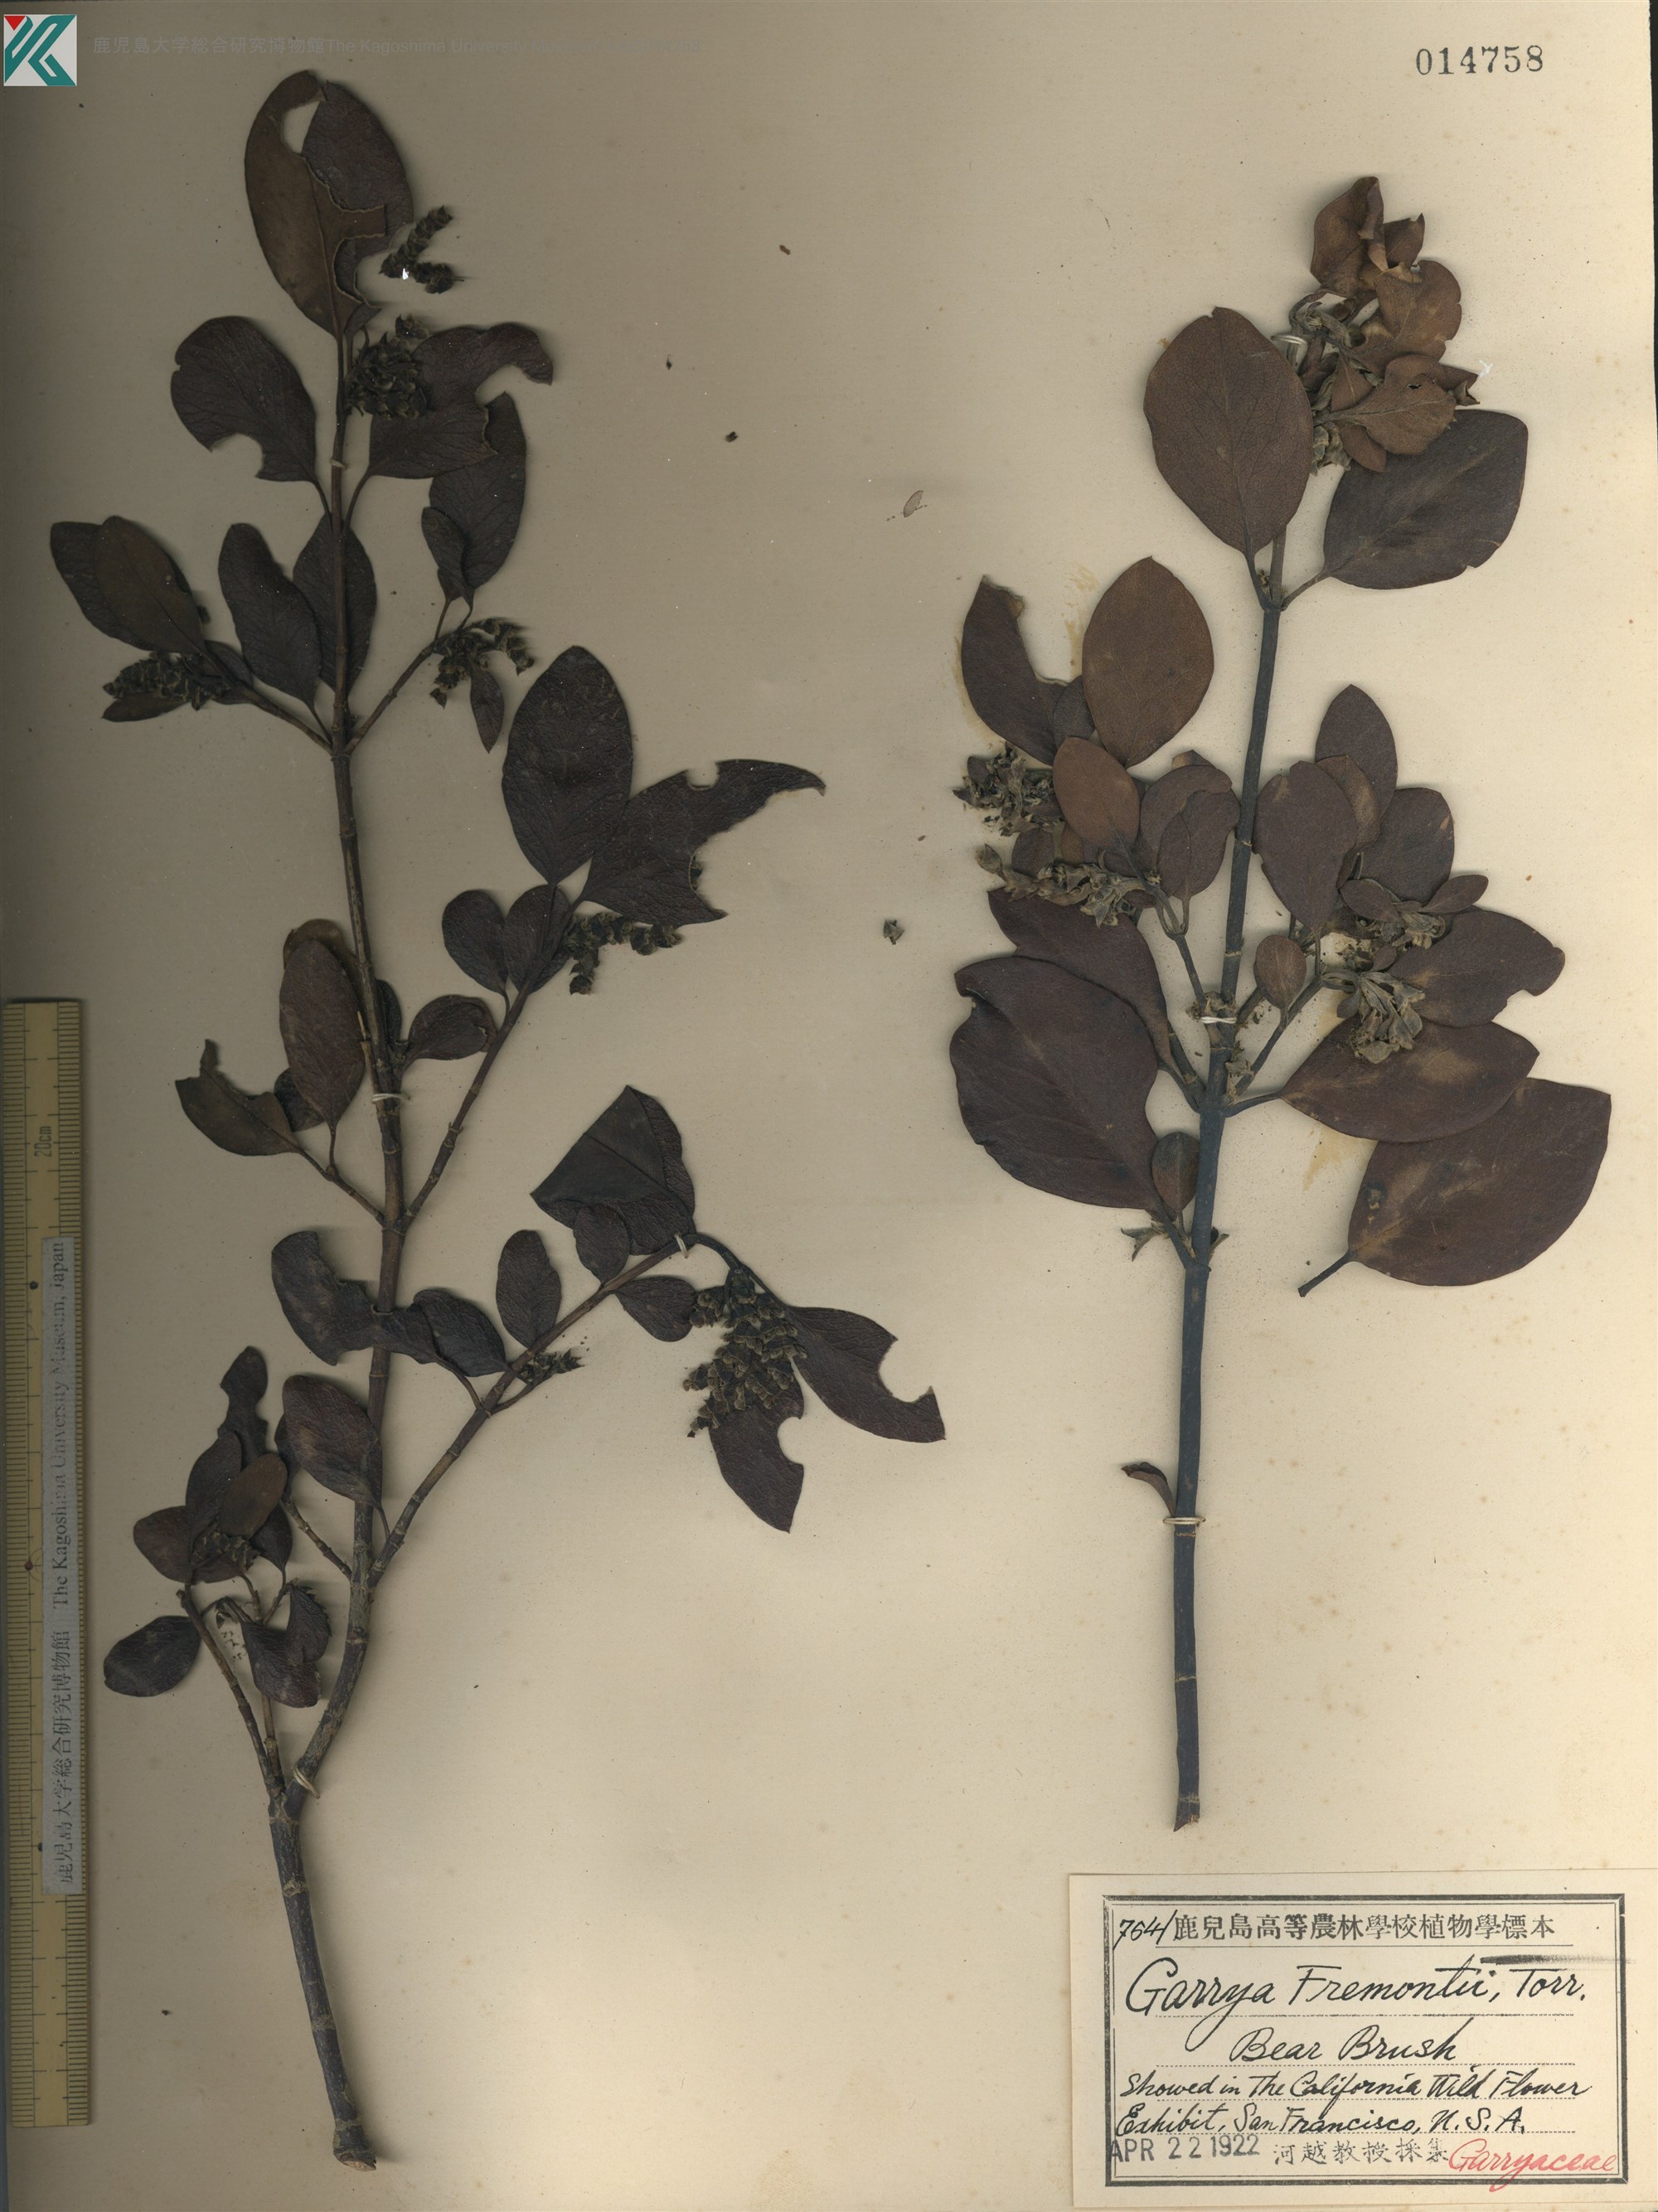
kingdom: Plantae
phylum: Tracheophyta
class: Magnoliopsida
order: Garryales
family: Garryaceae
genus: Garrya
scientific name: Garrya fremontii
